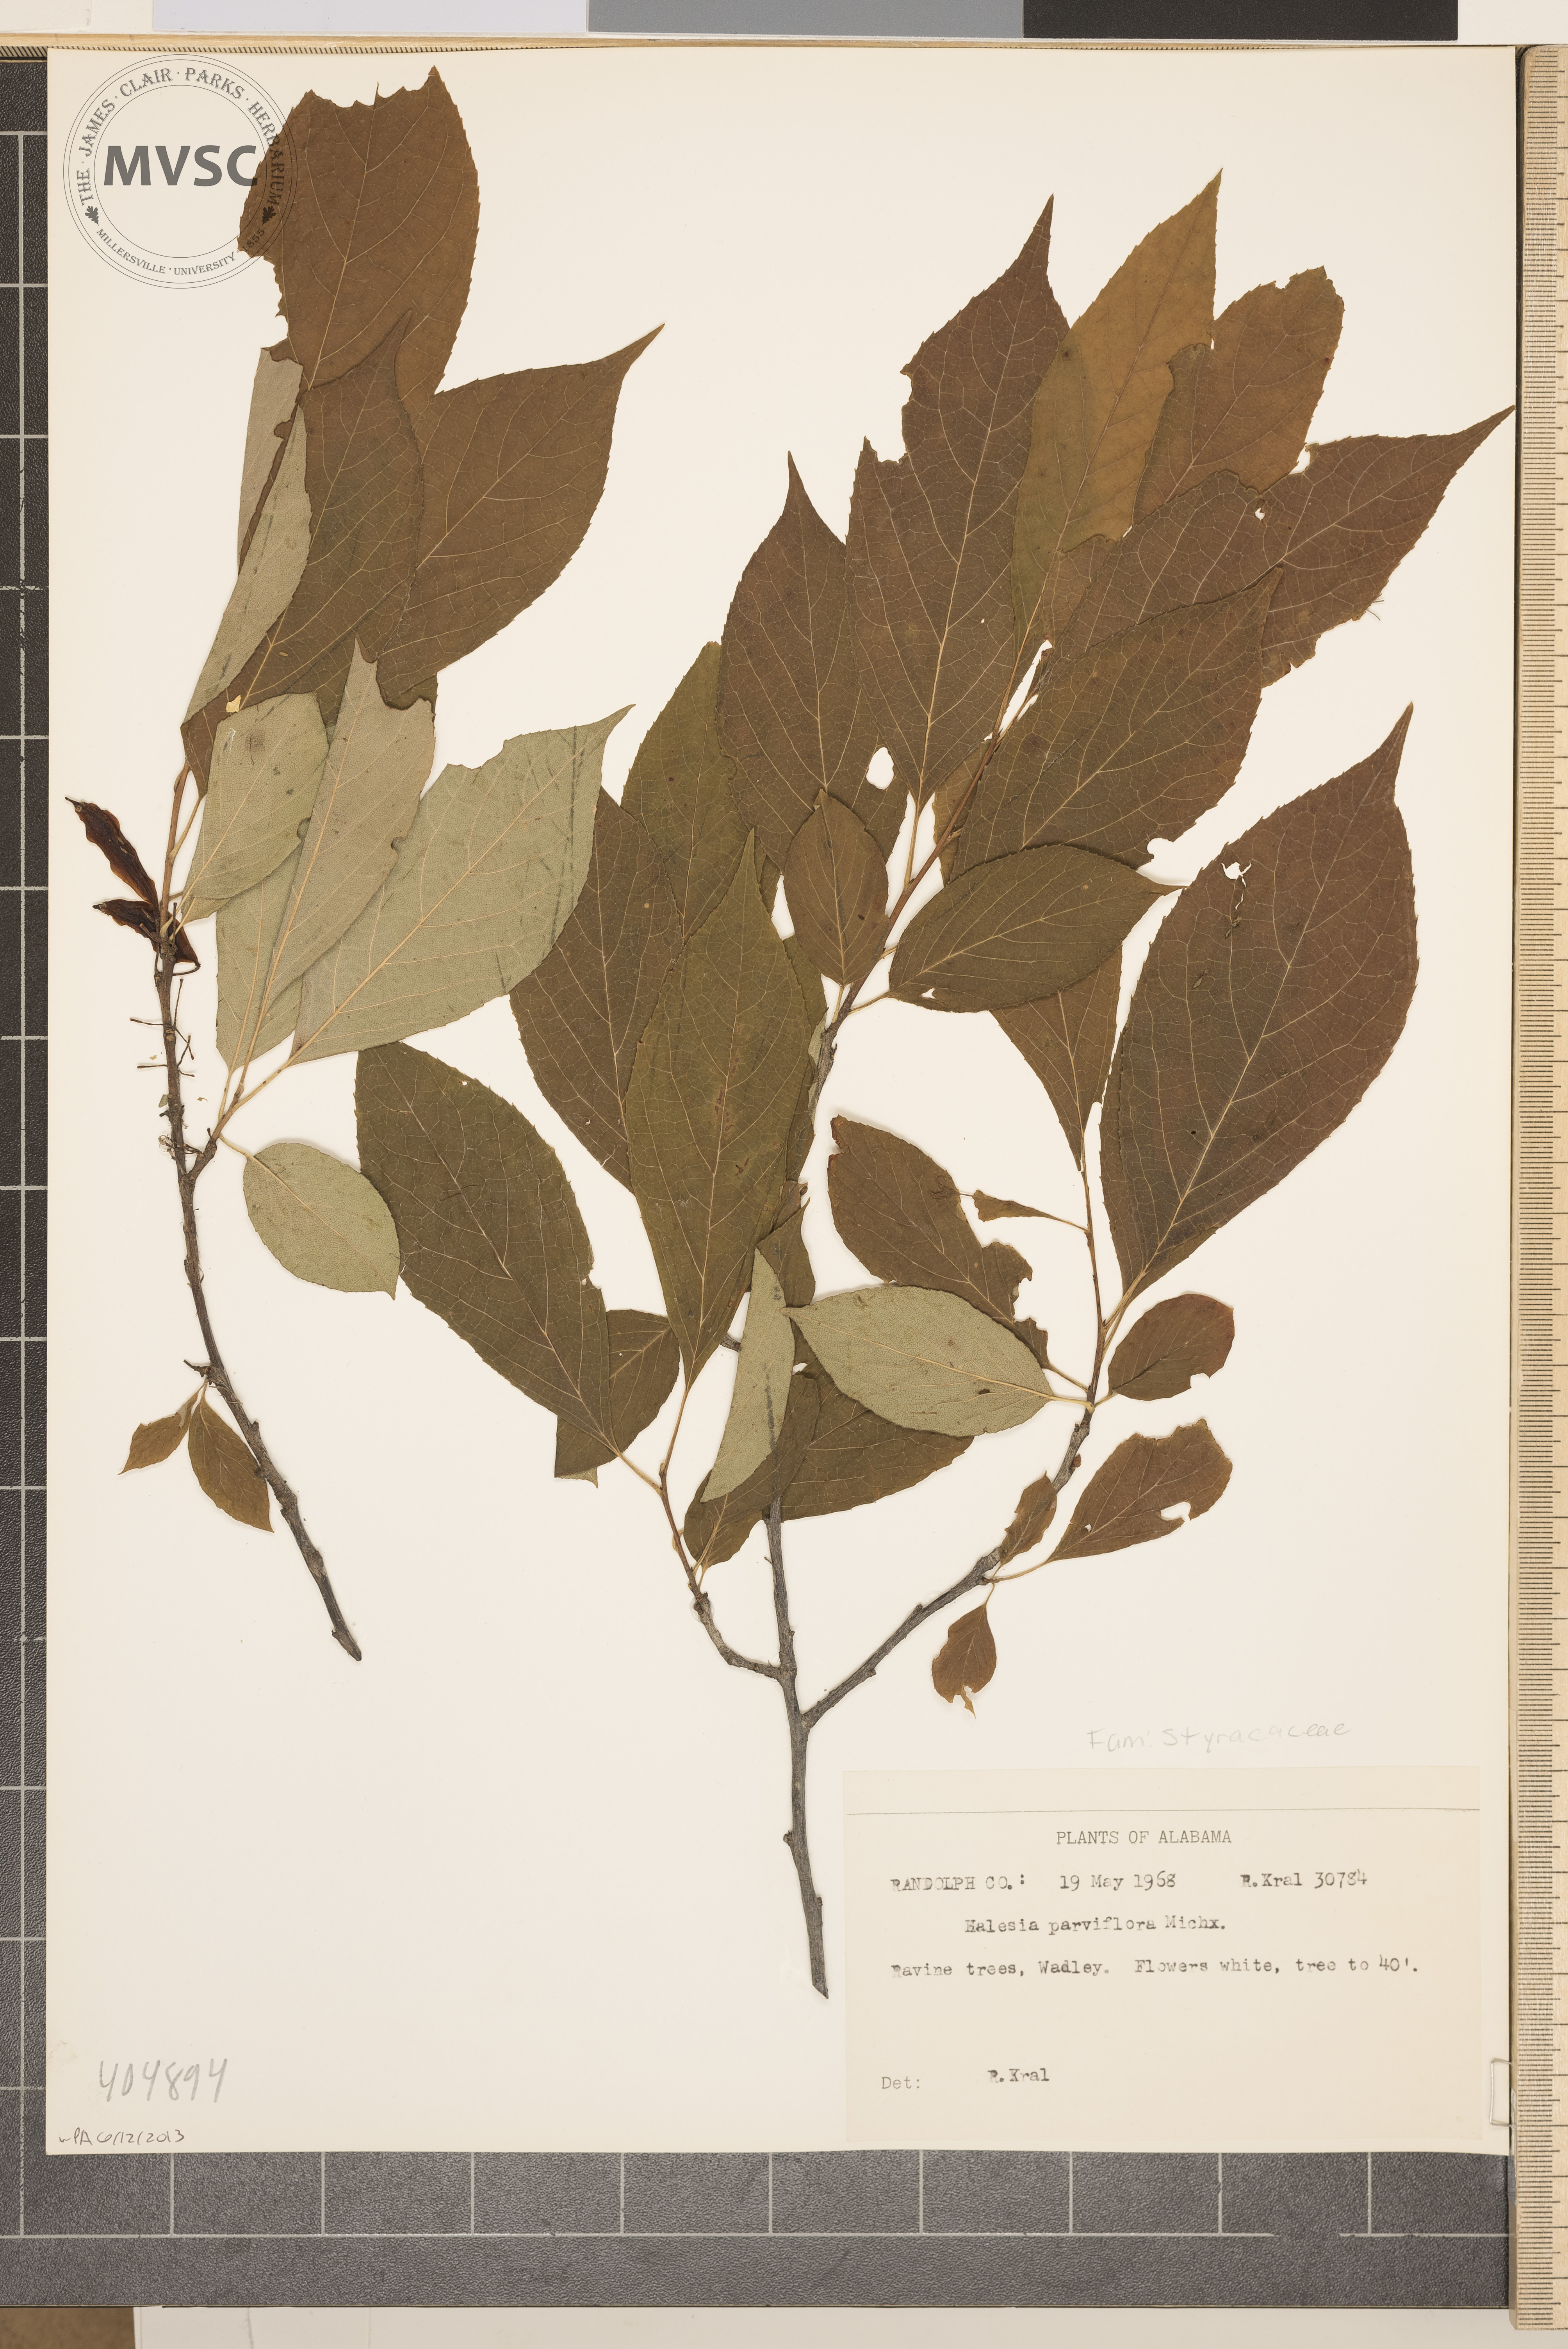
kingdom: Plantae
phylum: Tracheophyta
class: Magnoliopsida
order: Ericales
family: Styracaceae
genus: Halesia
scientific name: Halesia carolina
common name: Carolina silverbell
